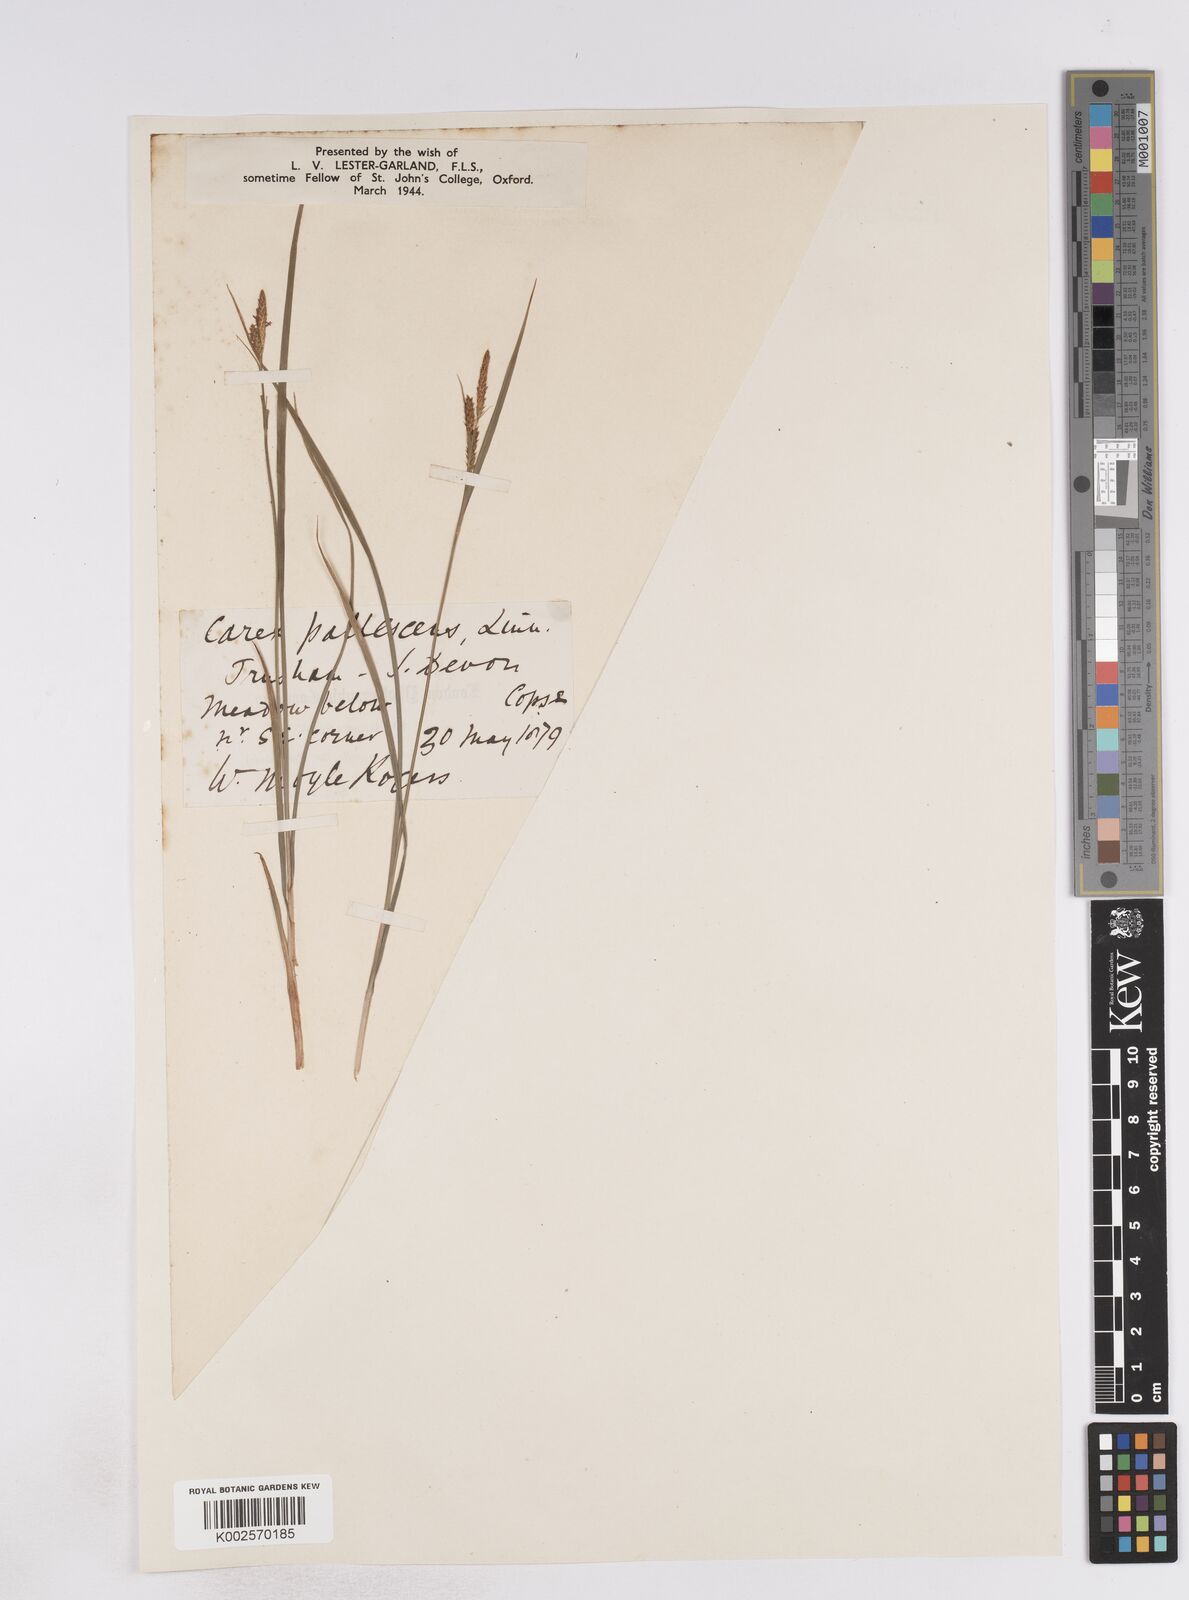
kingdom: Plantae
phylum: Tracheophyta
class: Liliopsida
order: Poales
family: Cyperaceae
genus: Carex
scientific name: Carex pallescens
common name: Pale sedge
